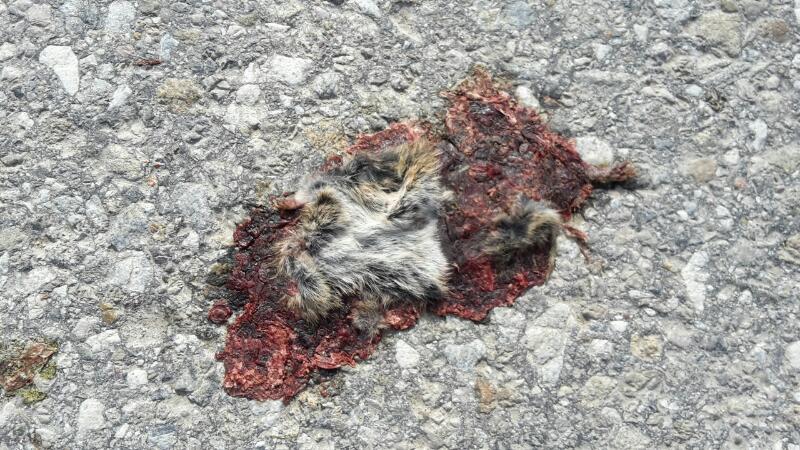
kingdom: Animalia
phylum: Chordata
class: Mammalia
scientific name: Mammalia
